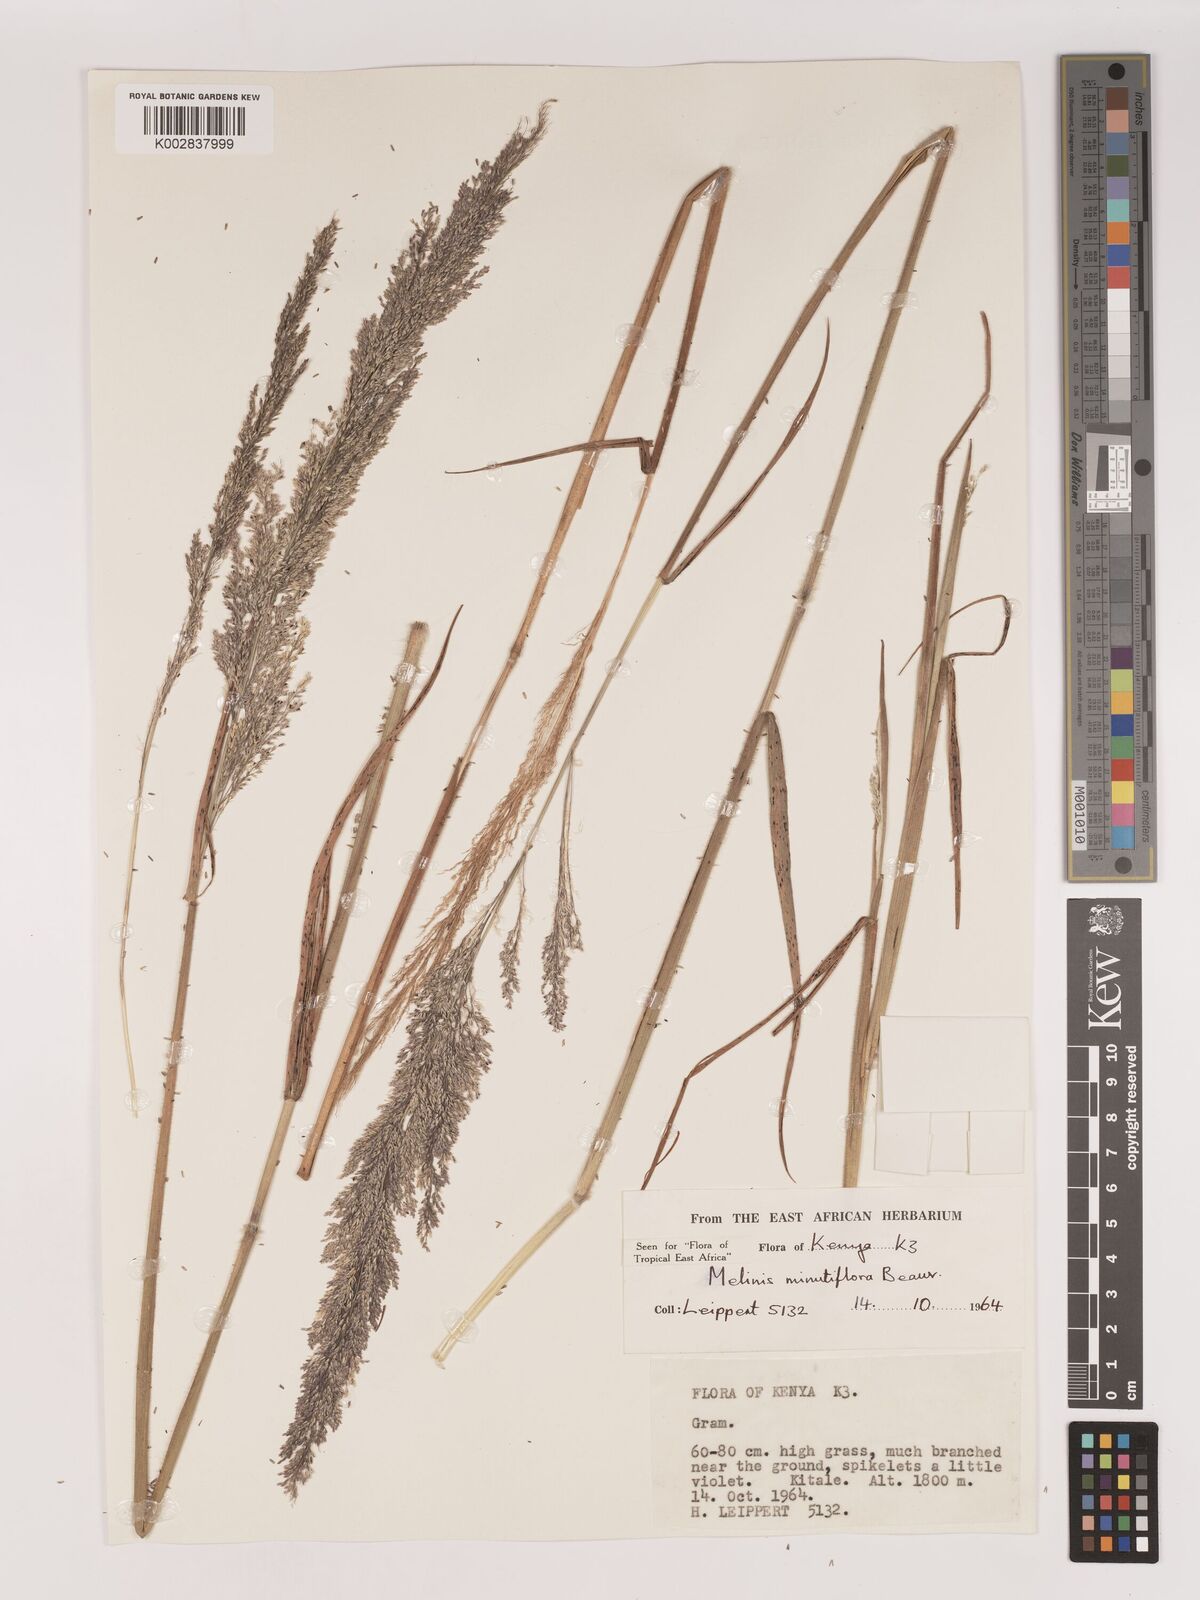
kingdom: Plantae
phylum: Tracheophyta
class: Liliopsida
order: Poales
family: Poaceae
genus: Melinis
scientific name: Melinis minutiflora
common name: Molassesgrass
